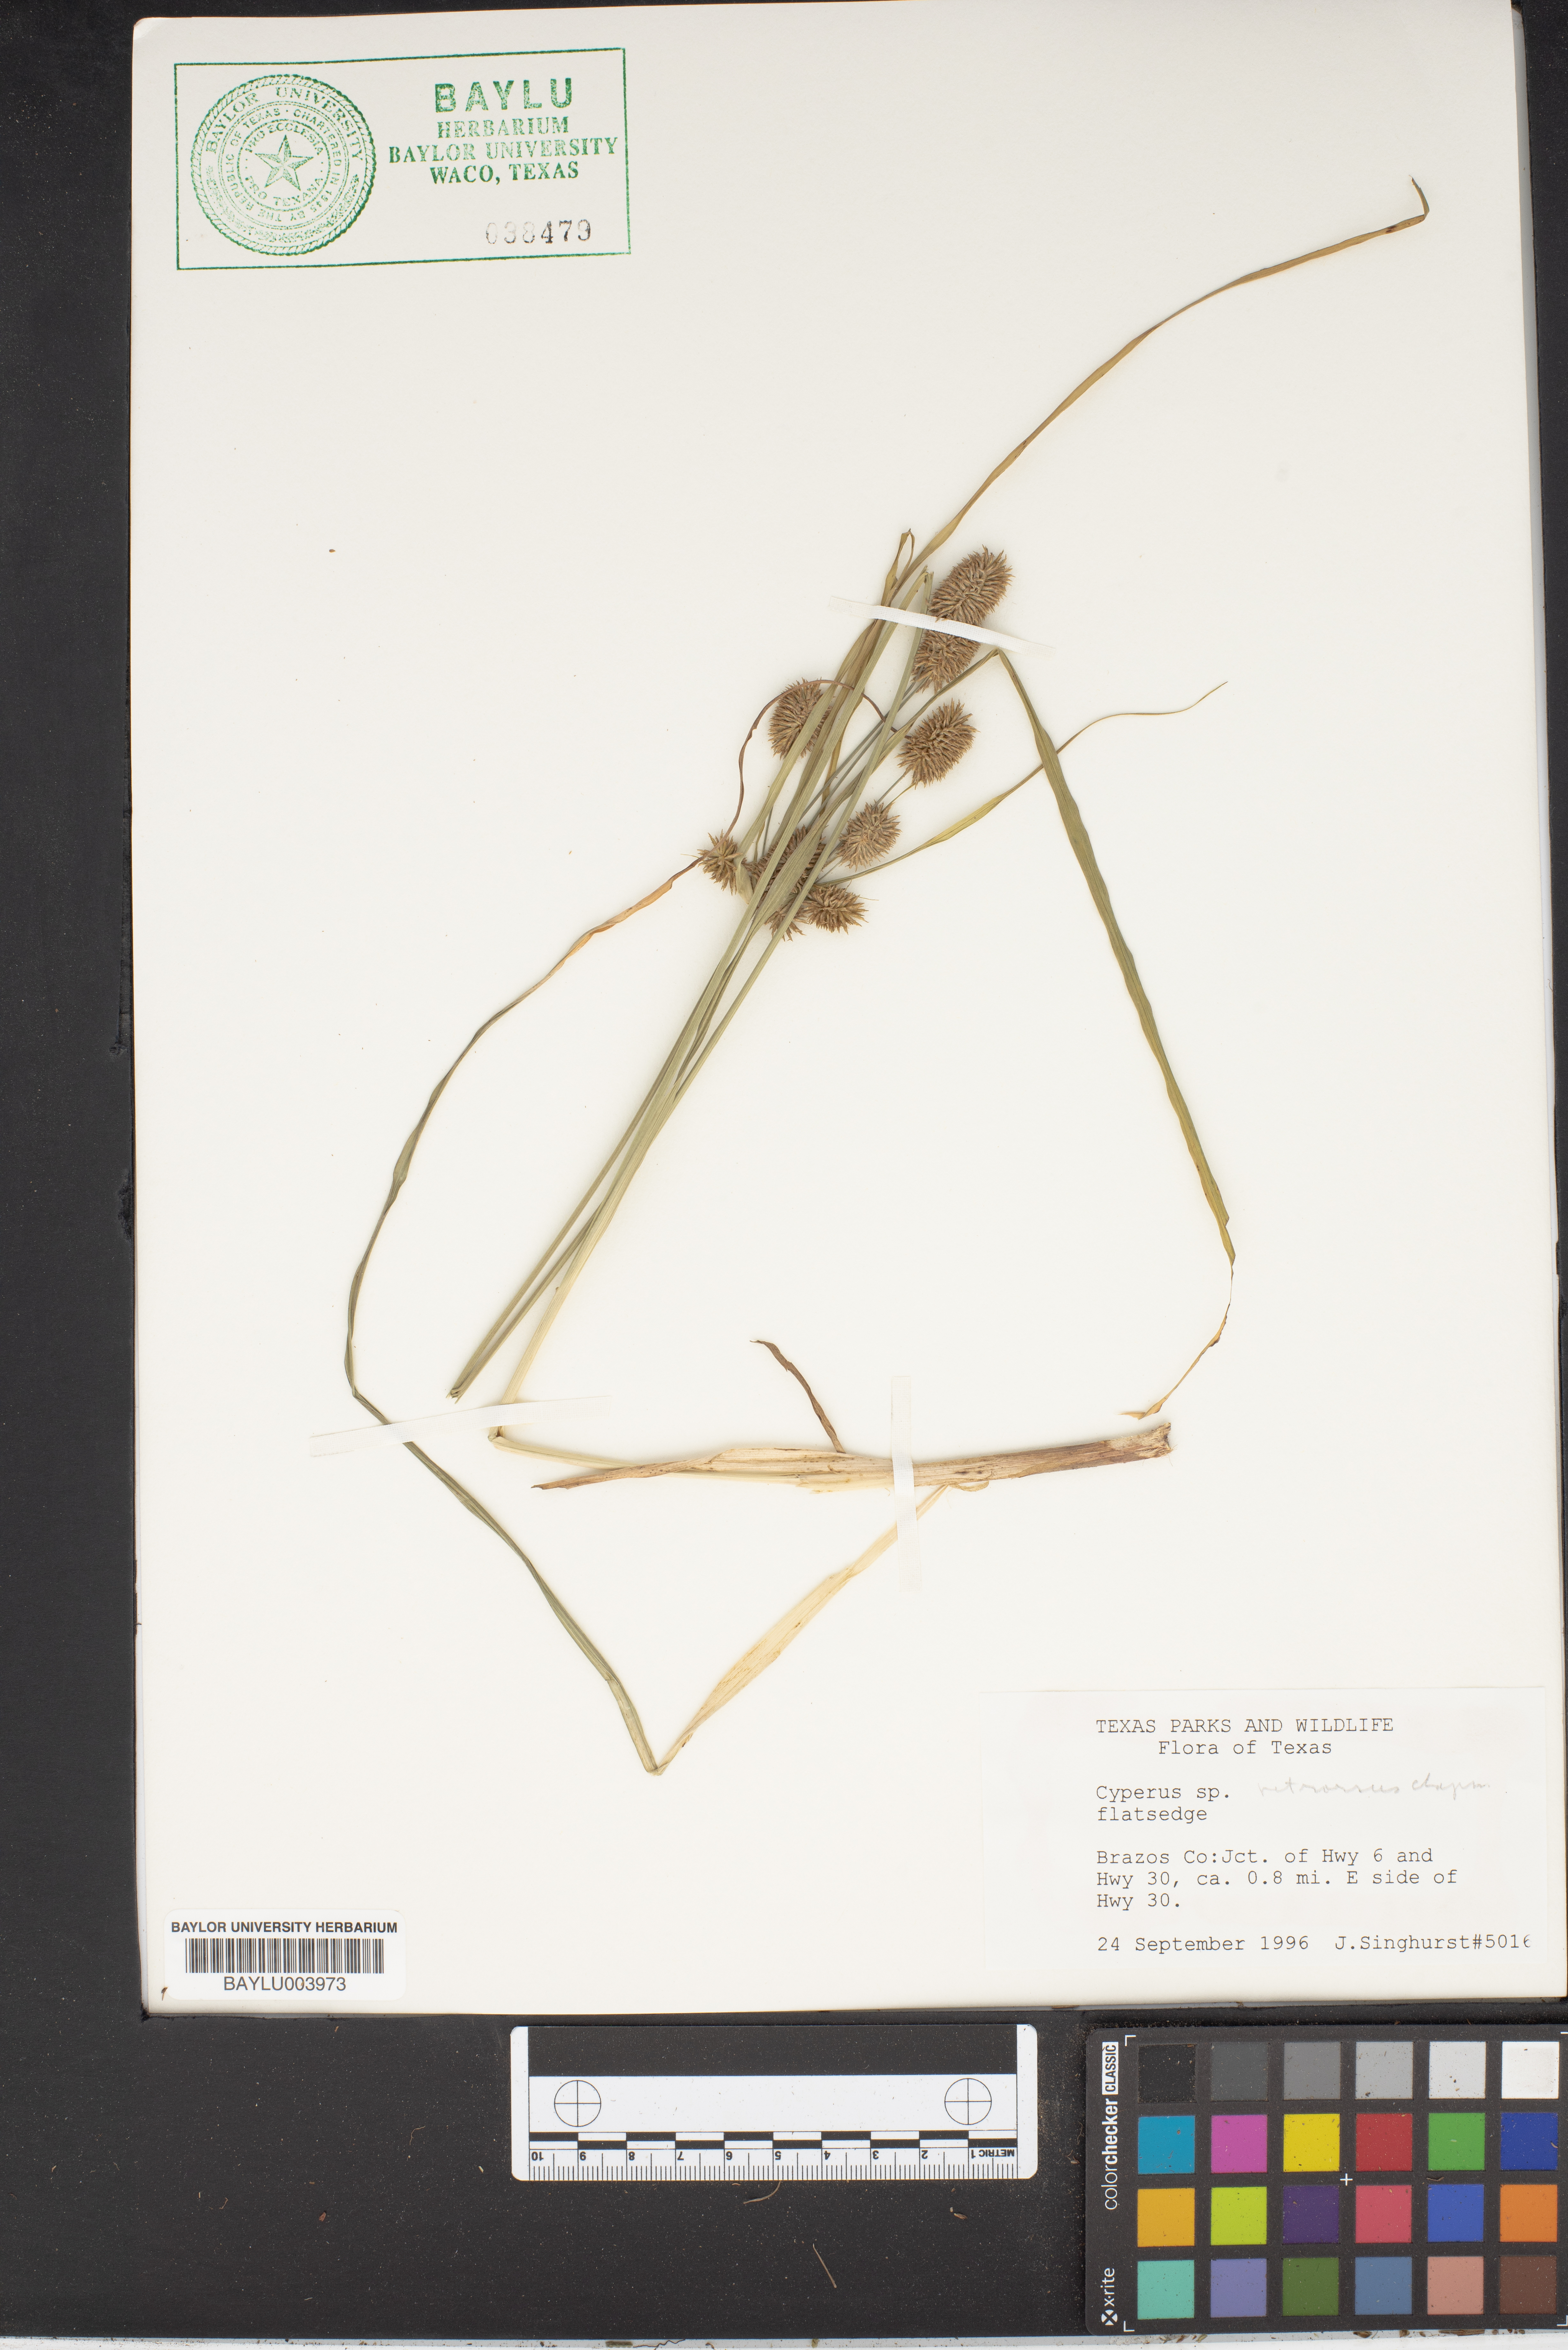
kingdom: Plantae
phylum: Tracheophyta
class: Liliopsida
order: Poales
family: Cyperaceae
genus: Cyperus
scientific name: Cyperus retrorsus
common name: Pinebarren flat sedge
